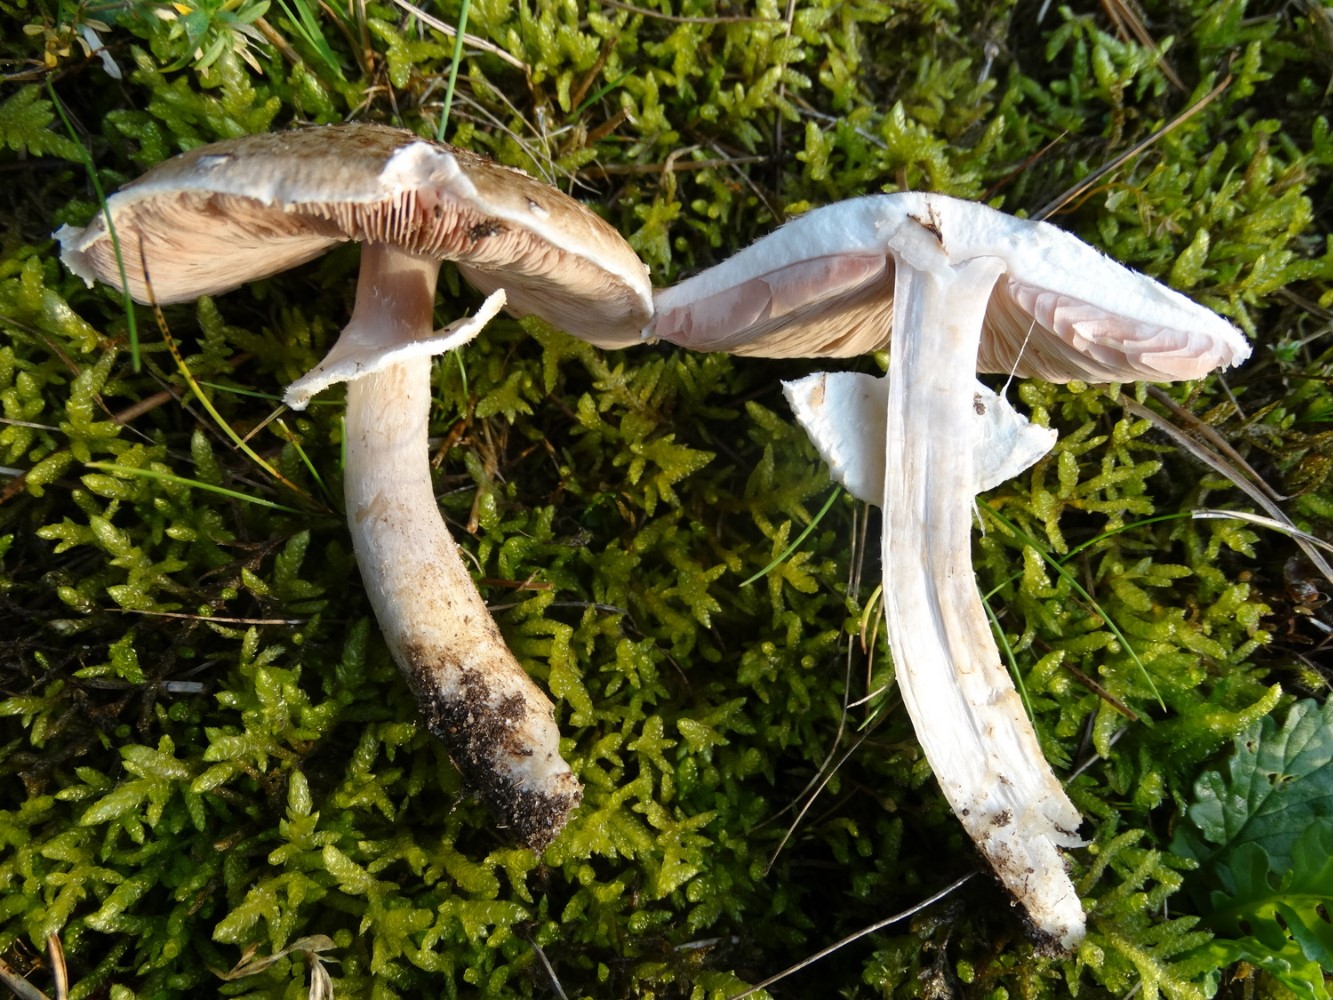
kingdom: Fungi
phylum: Basidiomycota
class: Agaricomycetes
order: Agaricales
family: Agaricaceae
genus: Agaricus
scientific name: Agaricus impudicus
